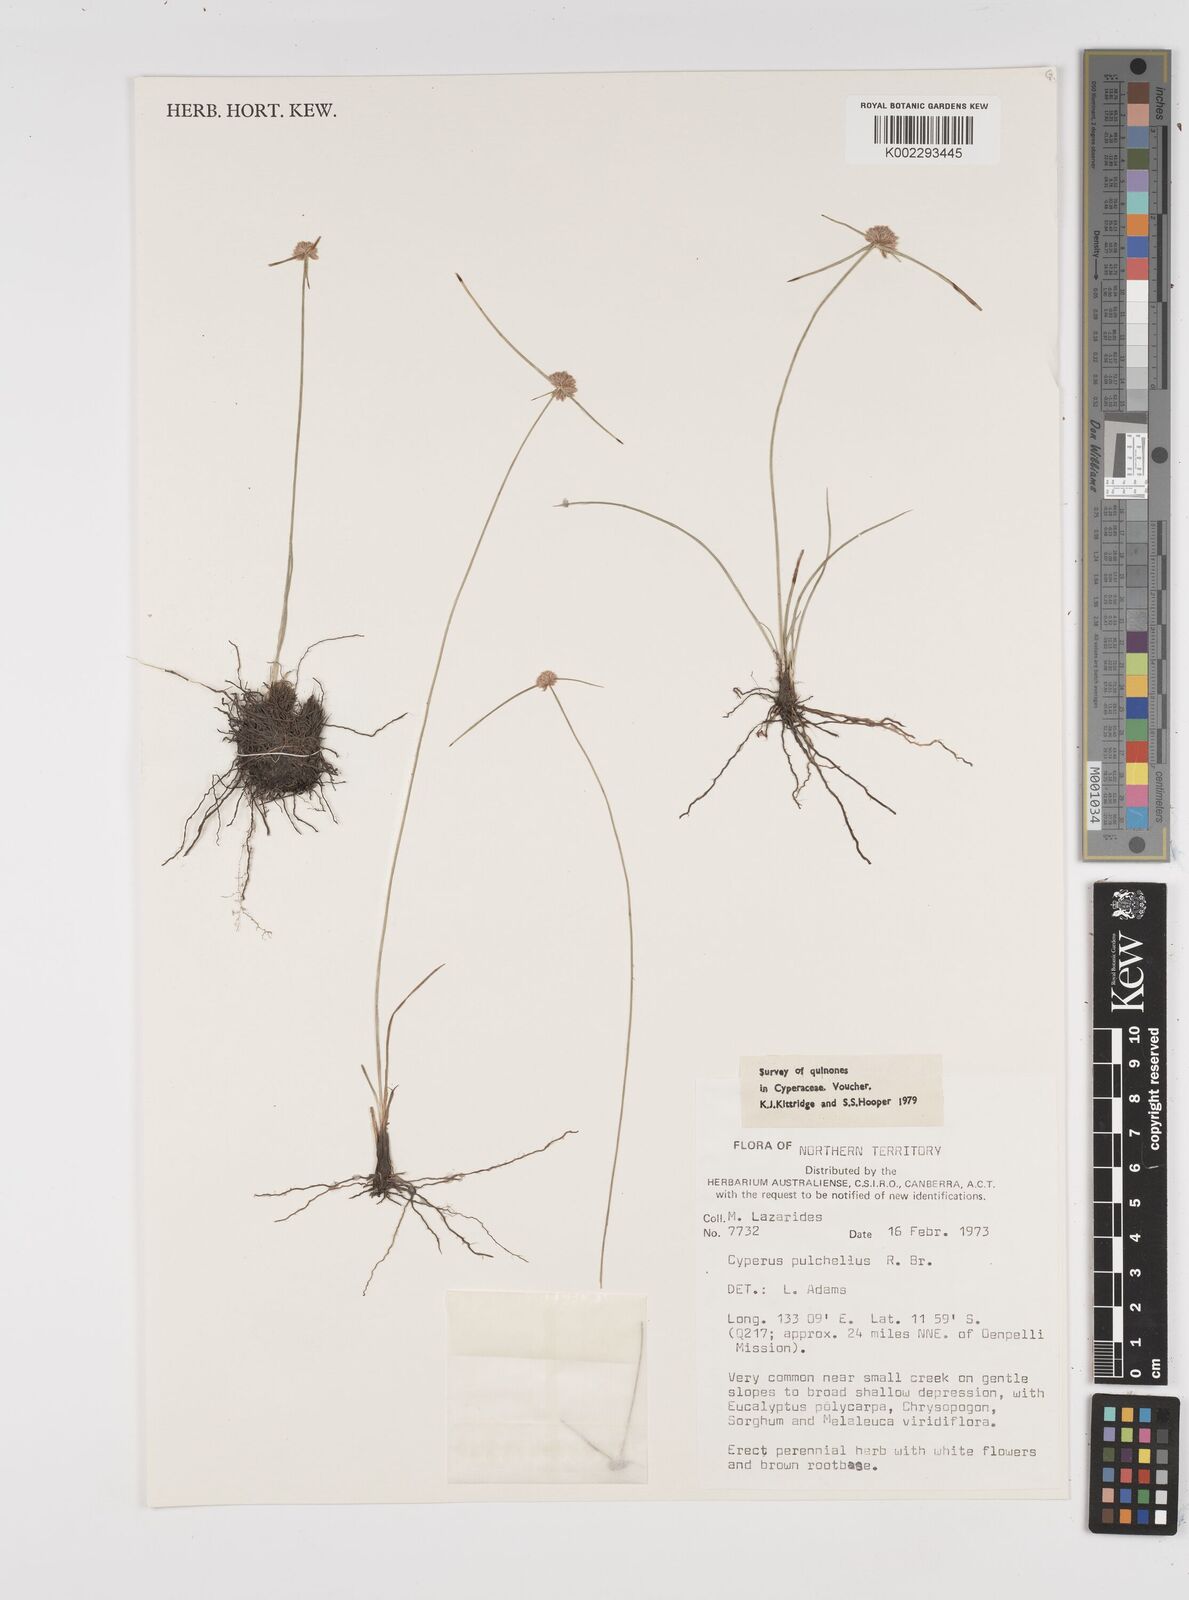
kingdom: Plantae
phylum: Tracheophyta
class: Liliopsida
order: Poales
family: Cyperaceae
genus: Cyperus
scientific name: Cyperus pulchellus
